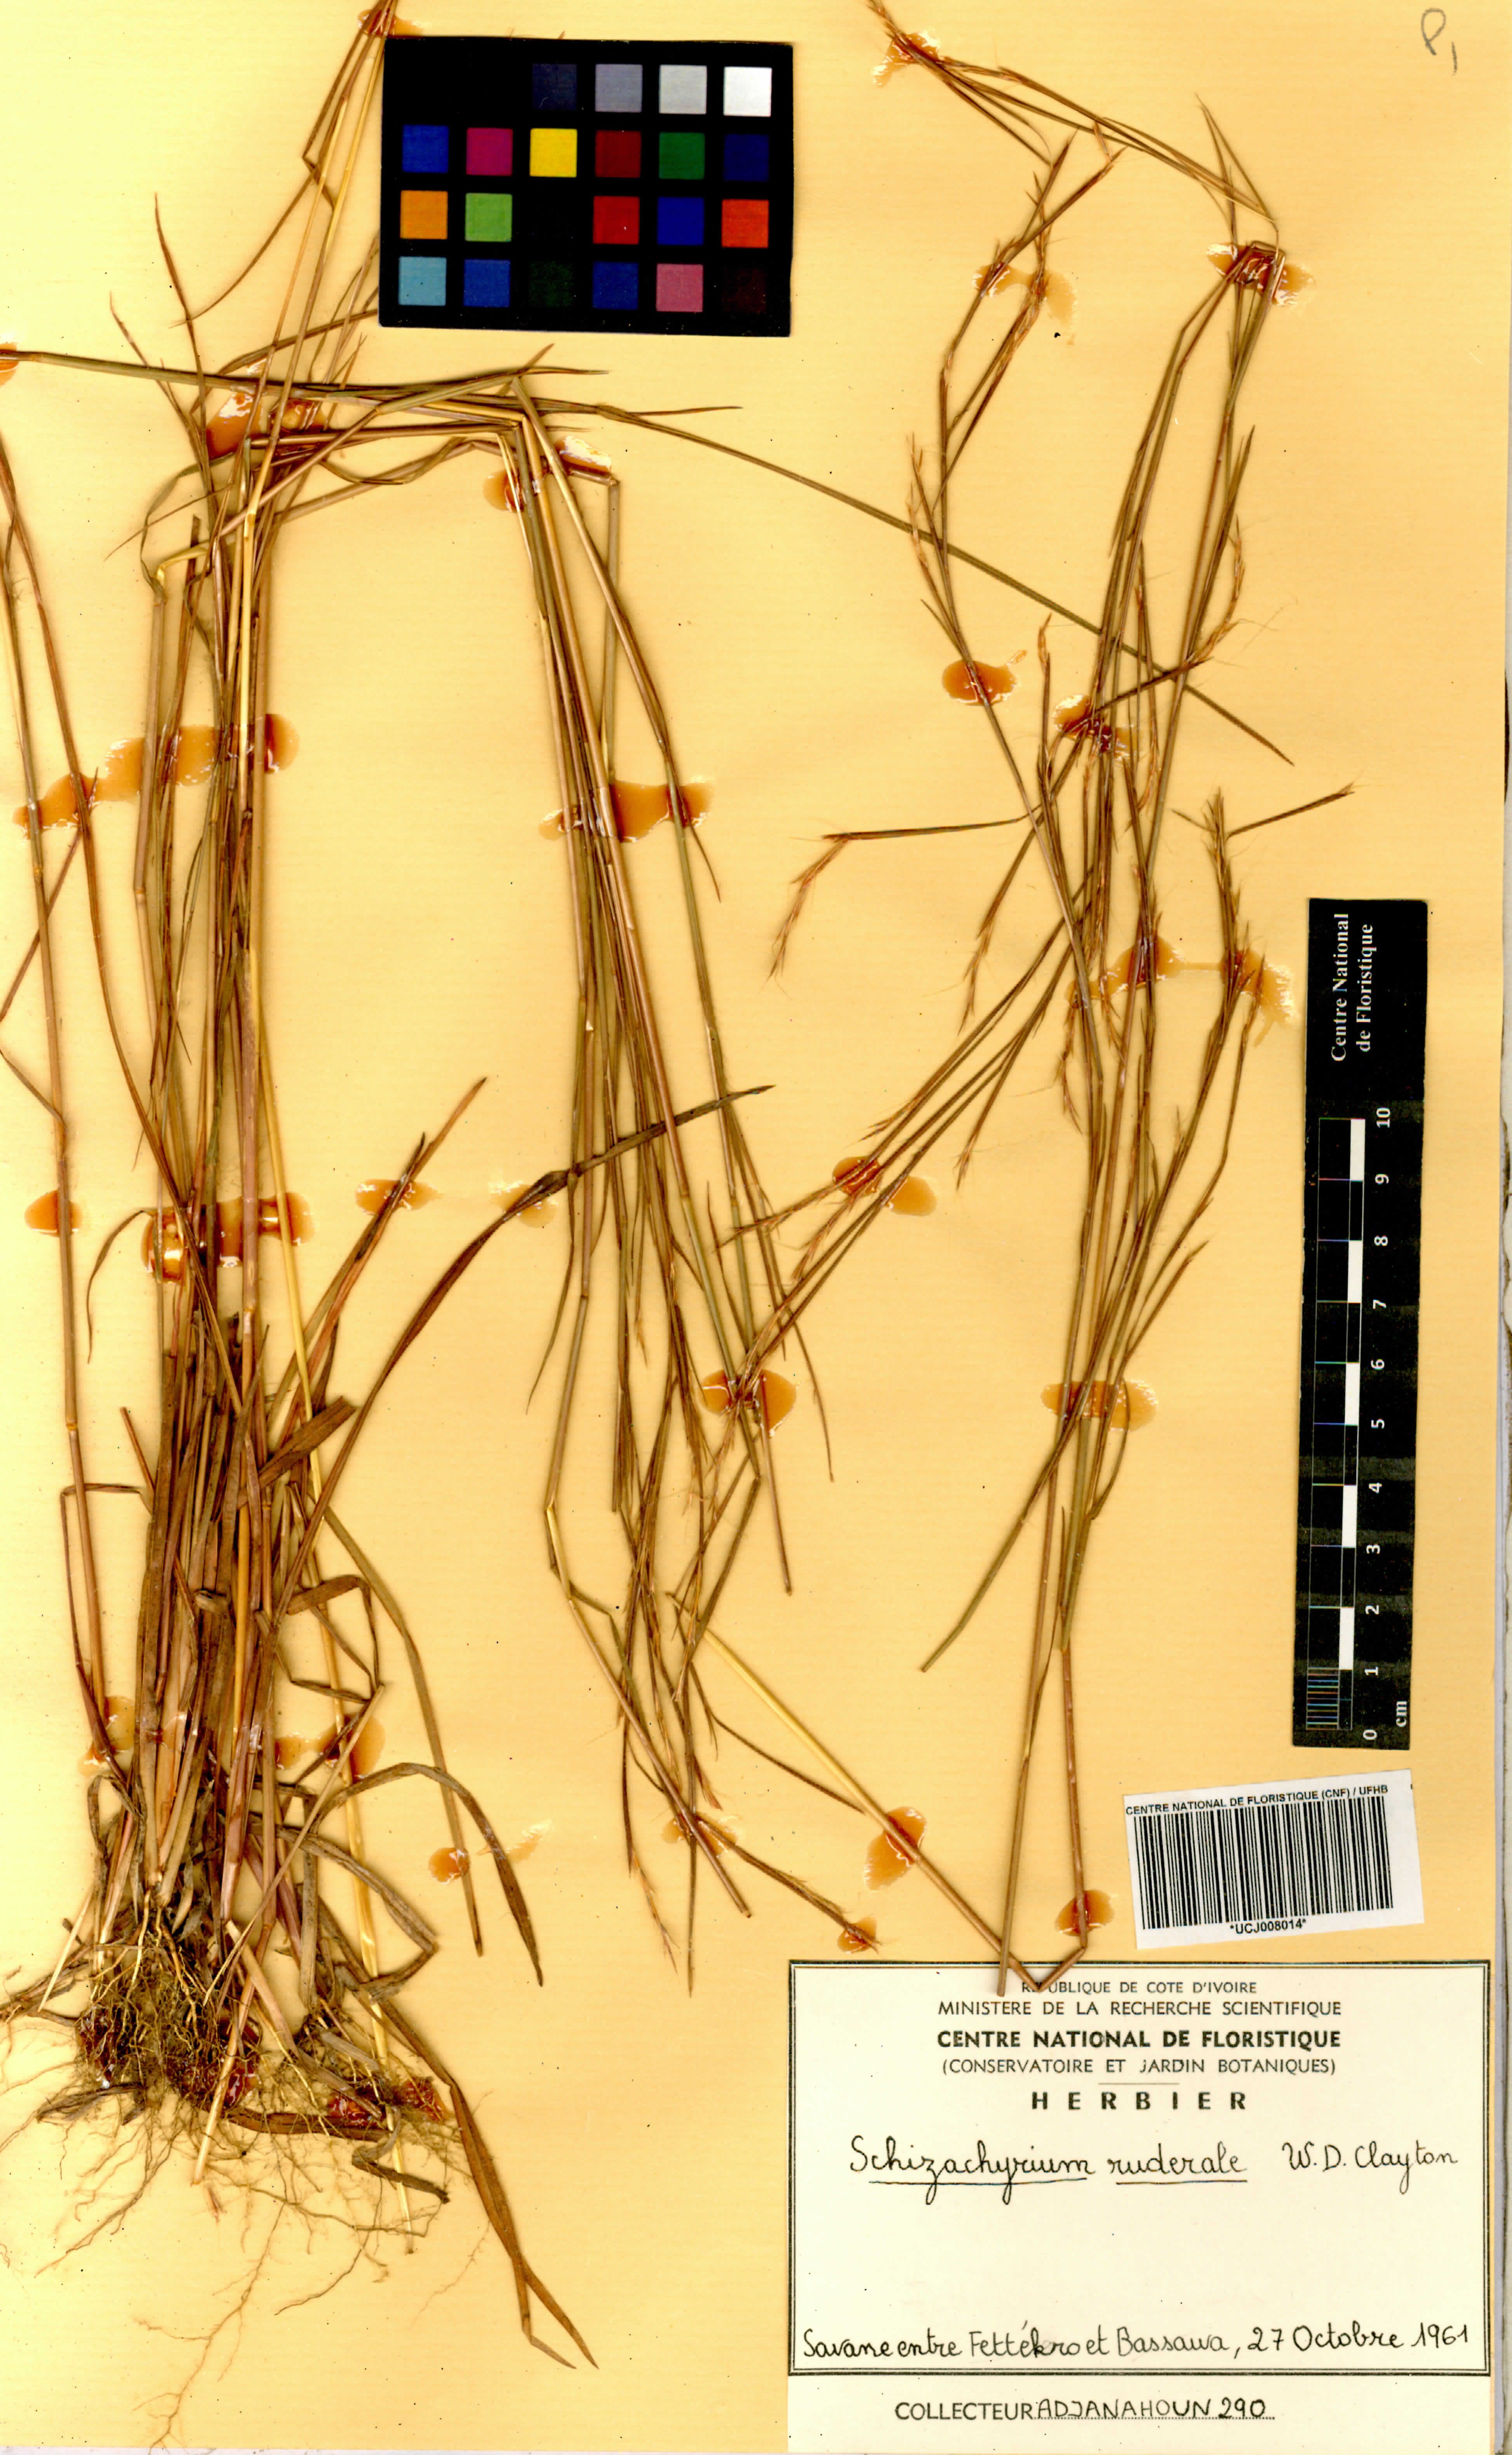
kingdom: Plantae
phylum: Tracheophyta
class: Liliopsida
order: Poales
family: Poaceae
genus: Schizachyrium
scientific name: Schizachyrium ruderale
